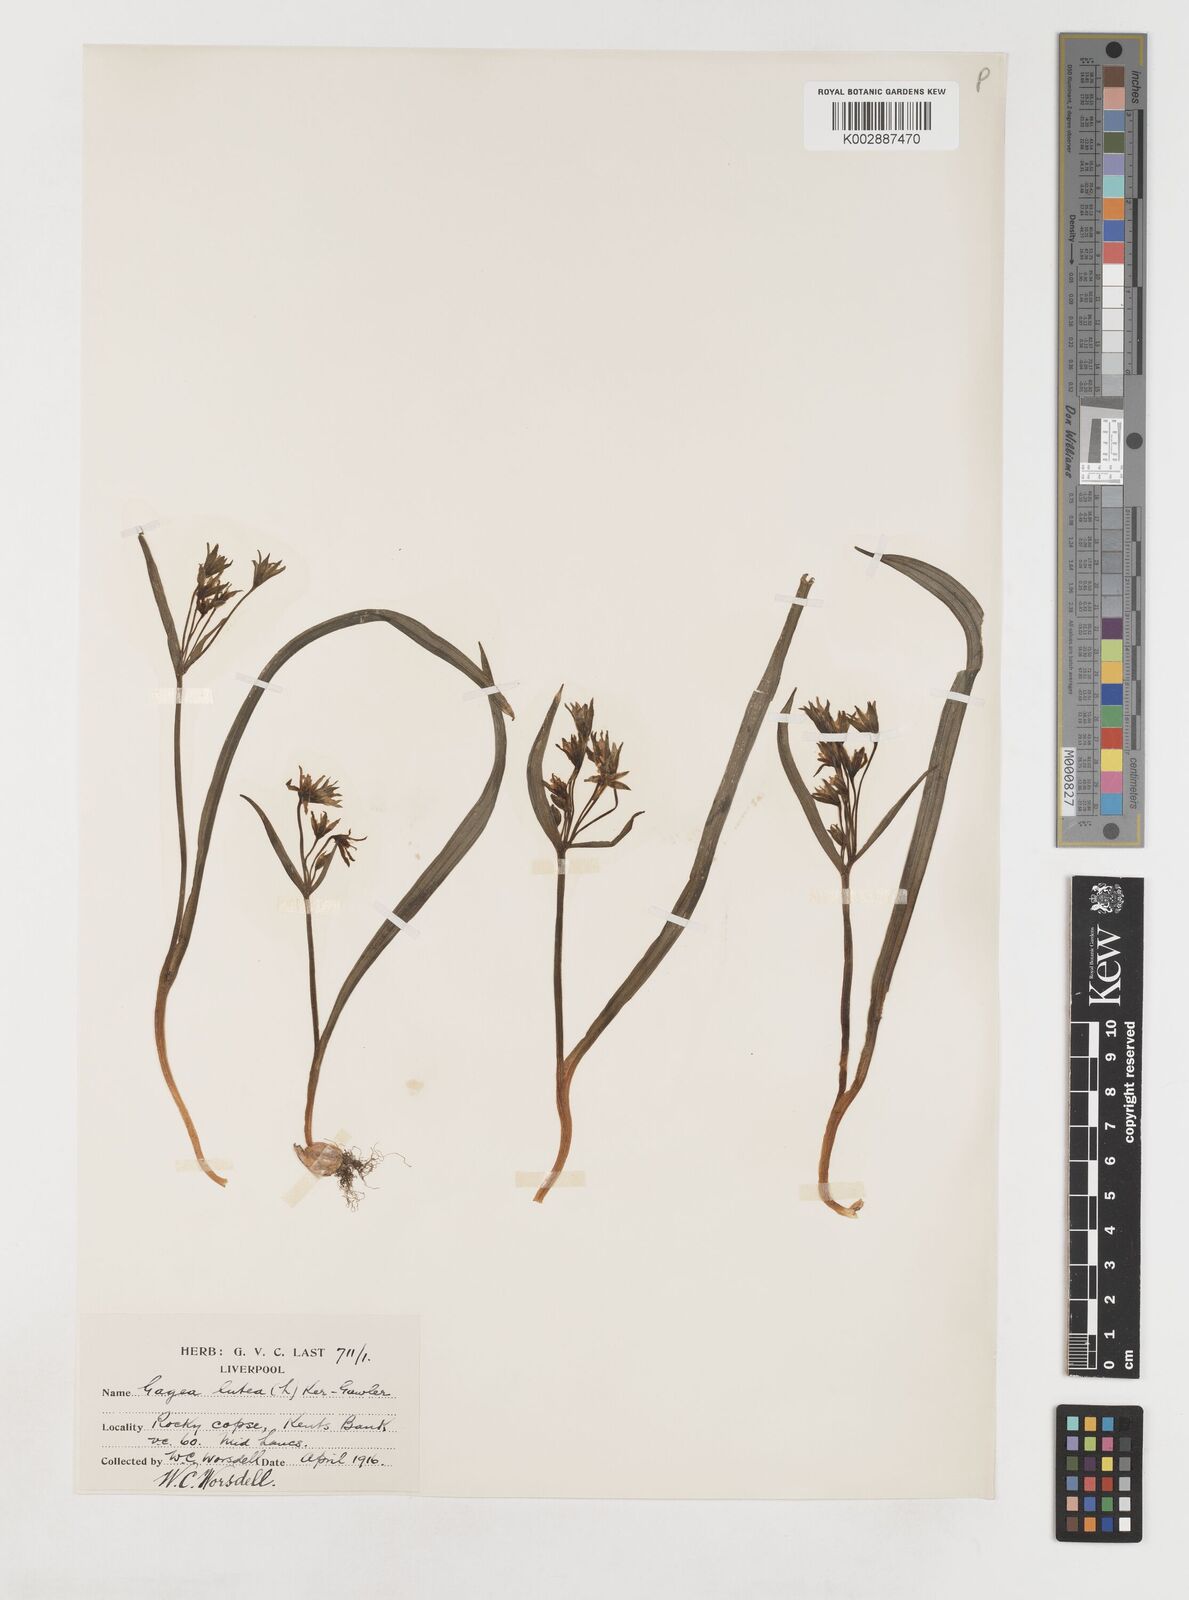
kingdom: Plantae
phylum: Tracheophyta
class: Liliopsida
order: Liliales
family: Liliaceae
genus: Gagea
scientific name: Gagea lutea
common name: Yellow star-of-bethlehem
